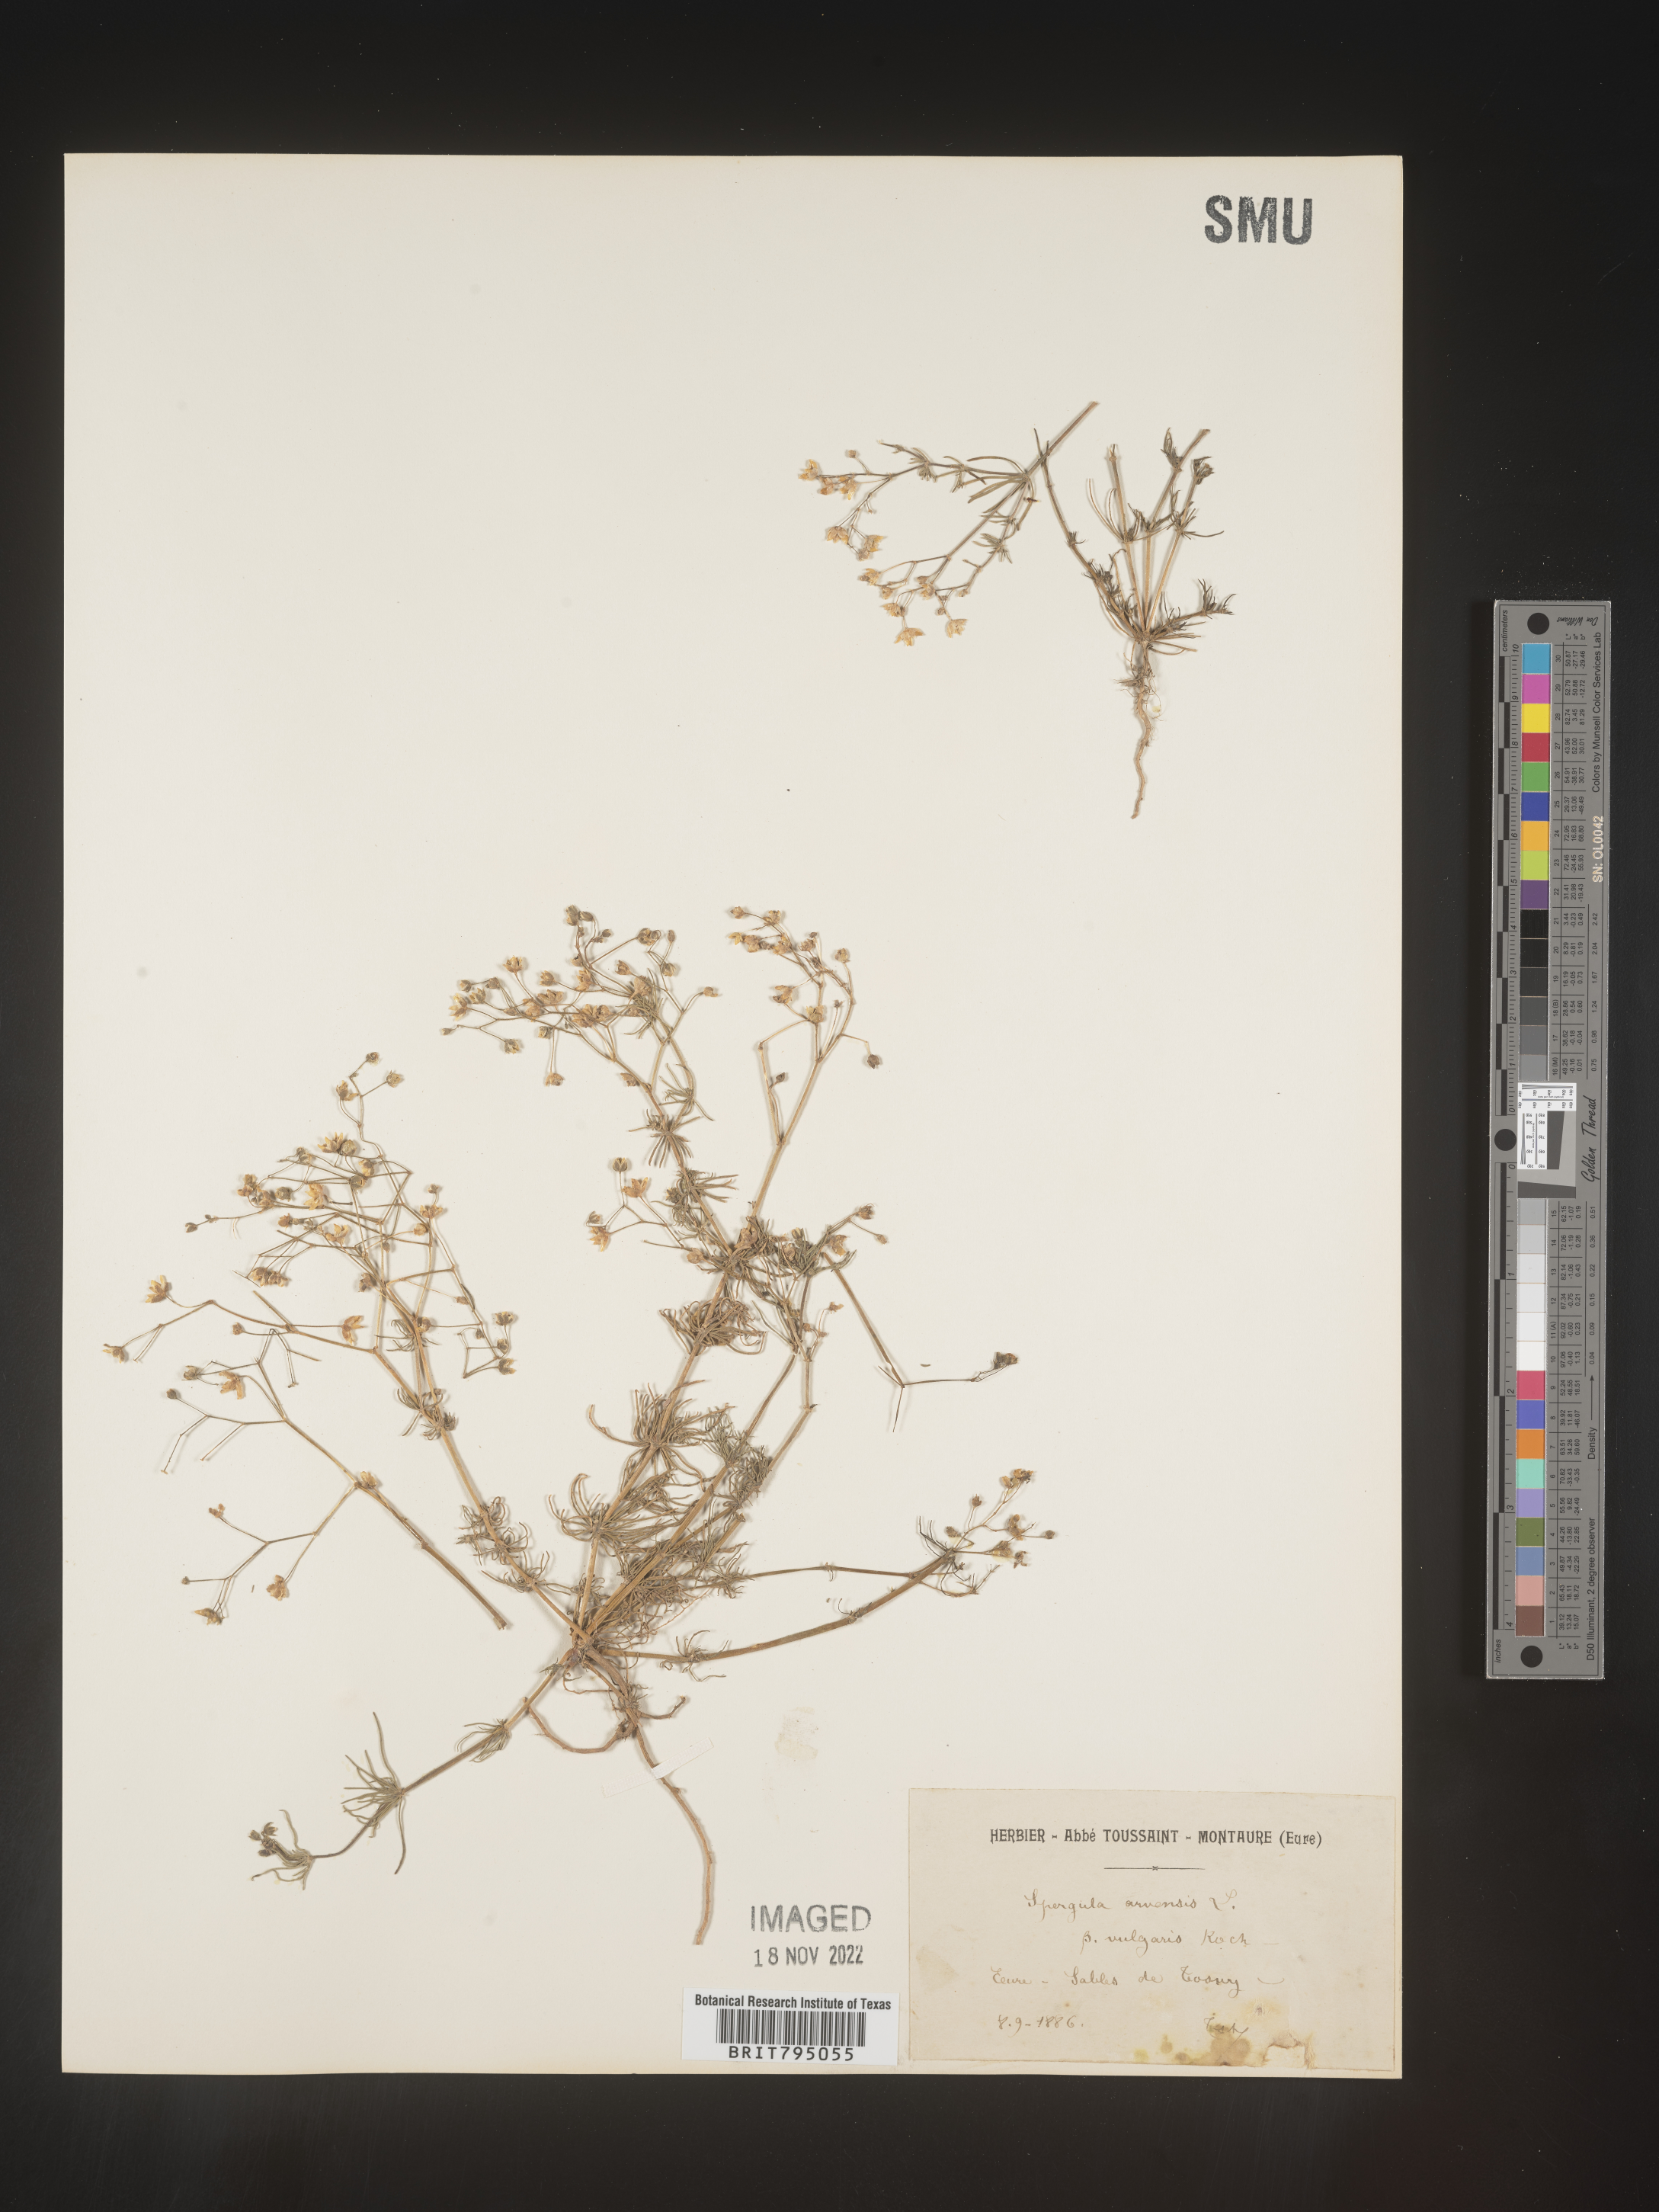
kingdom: Plantae
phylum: Tracheophyta
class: Magnoliopsida
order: Caryophyllales
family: Caryophyllaceae
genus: Spergula
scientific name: Spergula arvensis
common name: Corn spurrey
